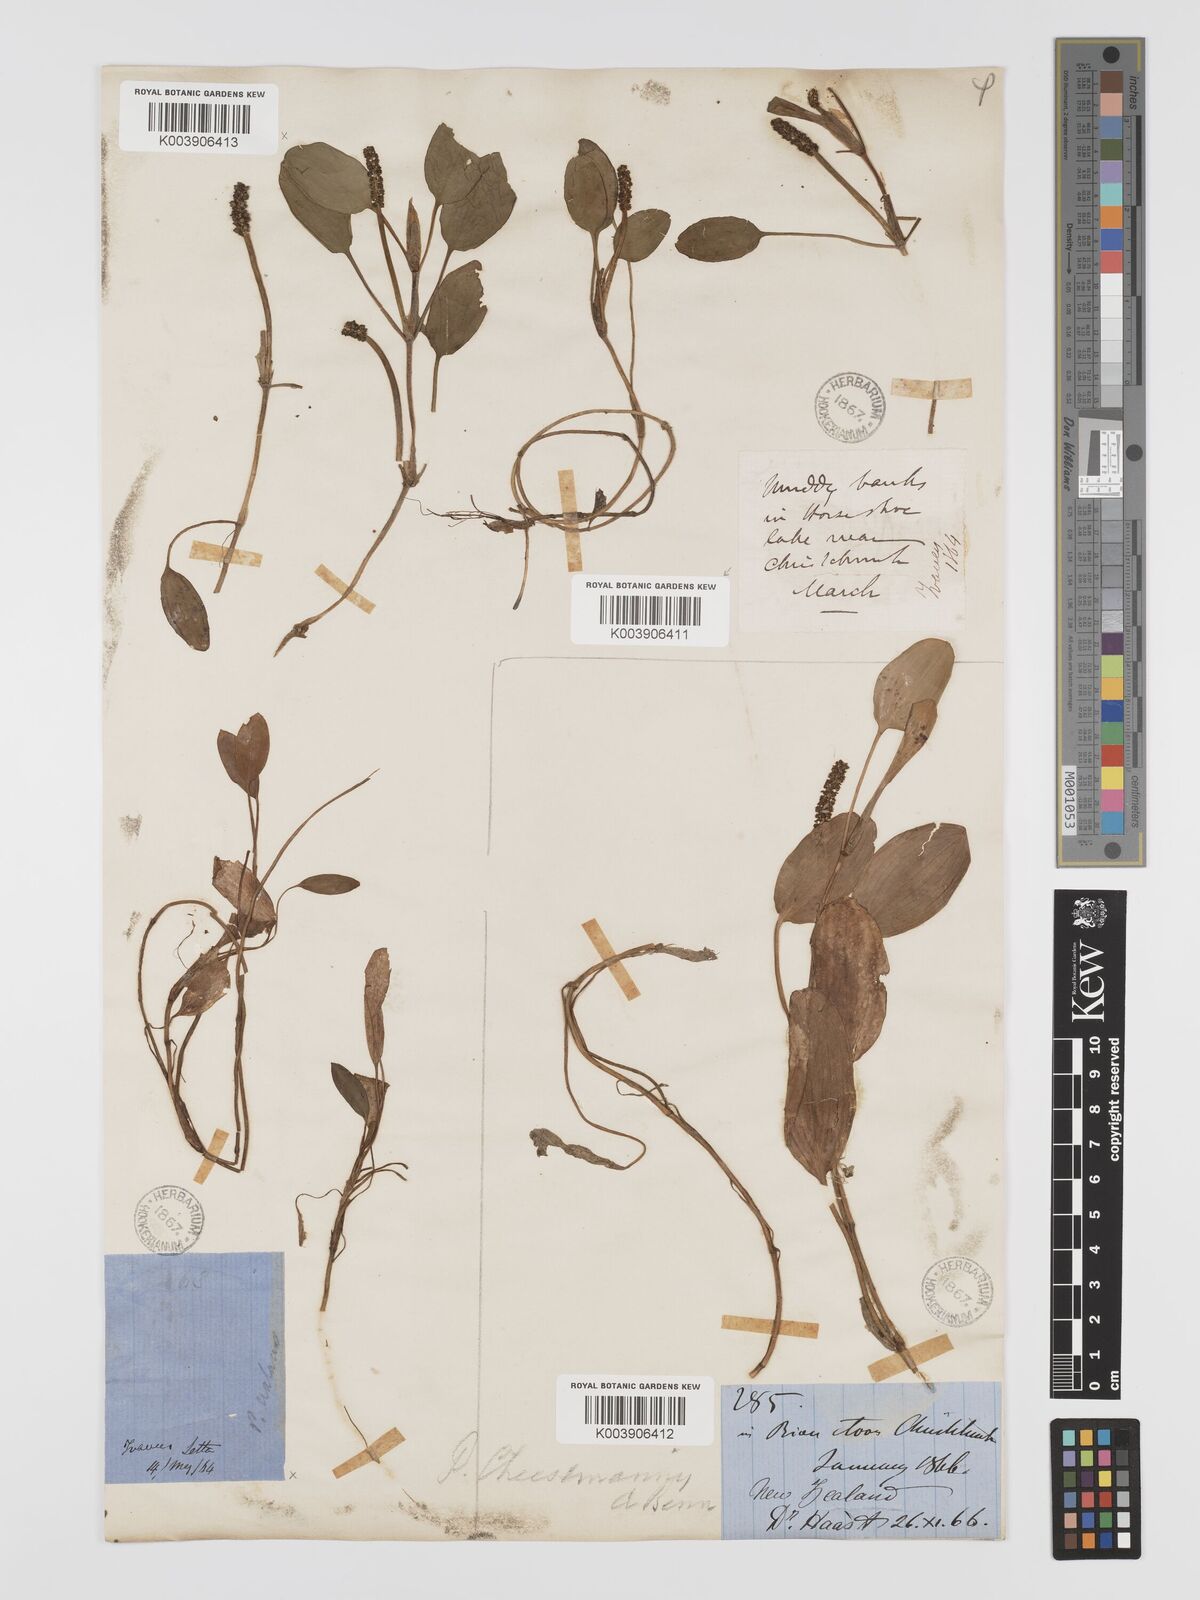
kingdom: Plantae
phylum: Tracheophyta
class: Liliopsida
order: Alismatales
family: Potamogetonaceae
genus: Potamogeton
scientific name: Potamogeton cheesemanii
